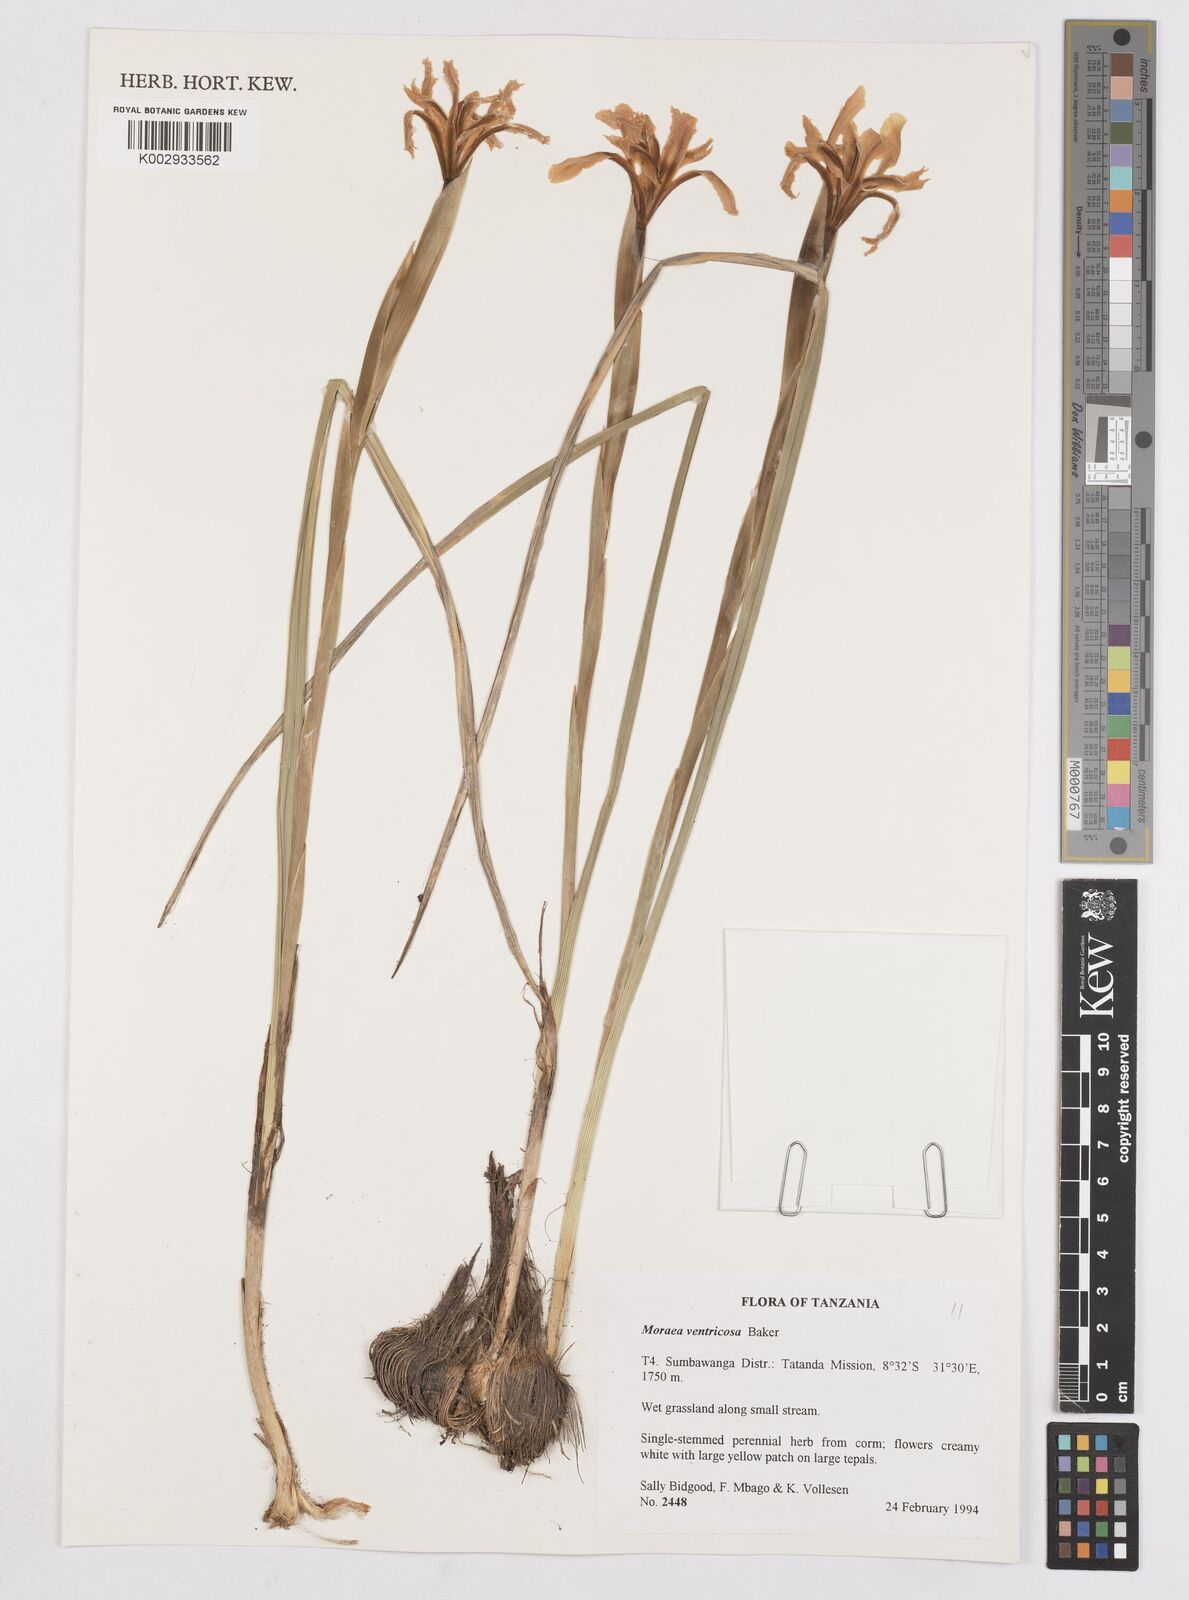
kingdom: Plantae
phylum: Tracheophyta
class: Liliopsida
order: Asparagales
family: Iridaceae
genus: Moraea
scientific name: Moraea ventricosa
